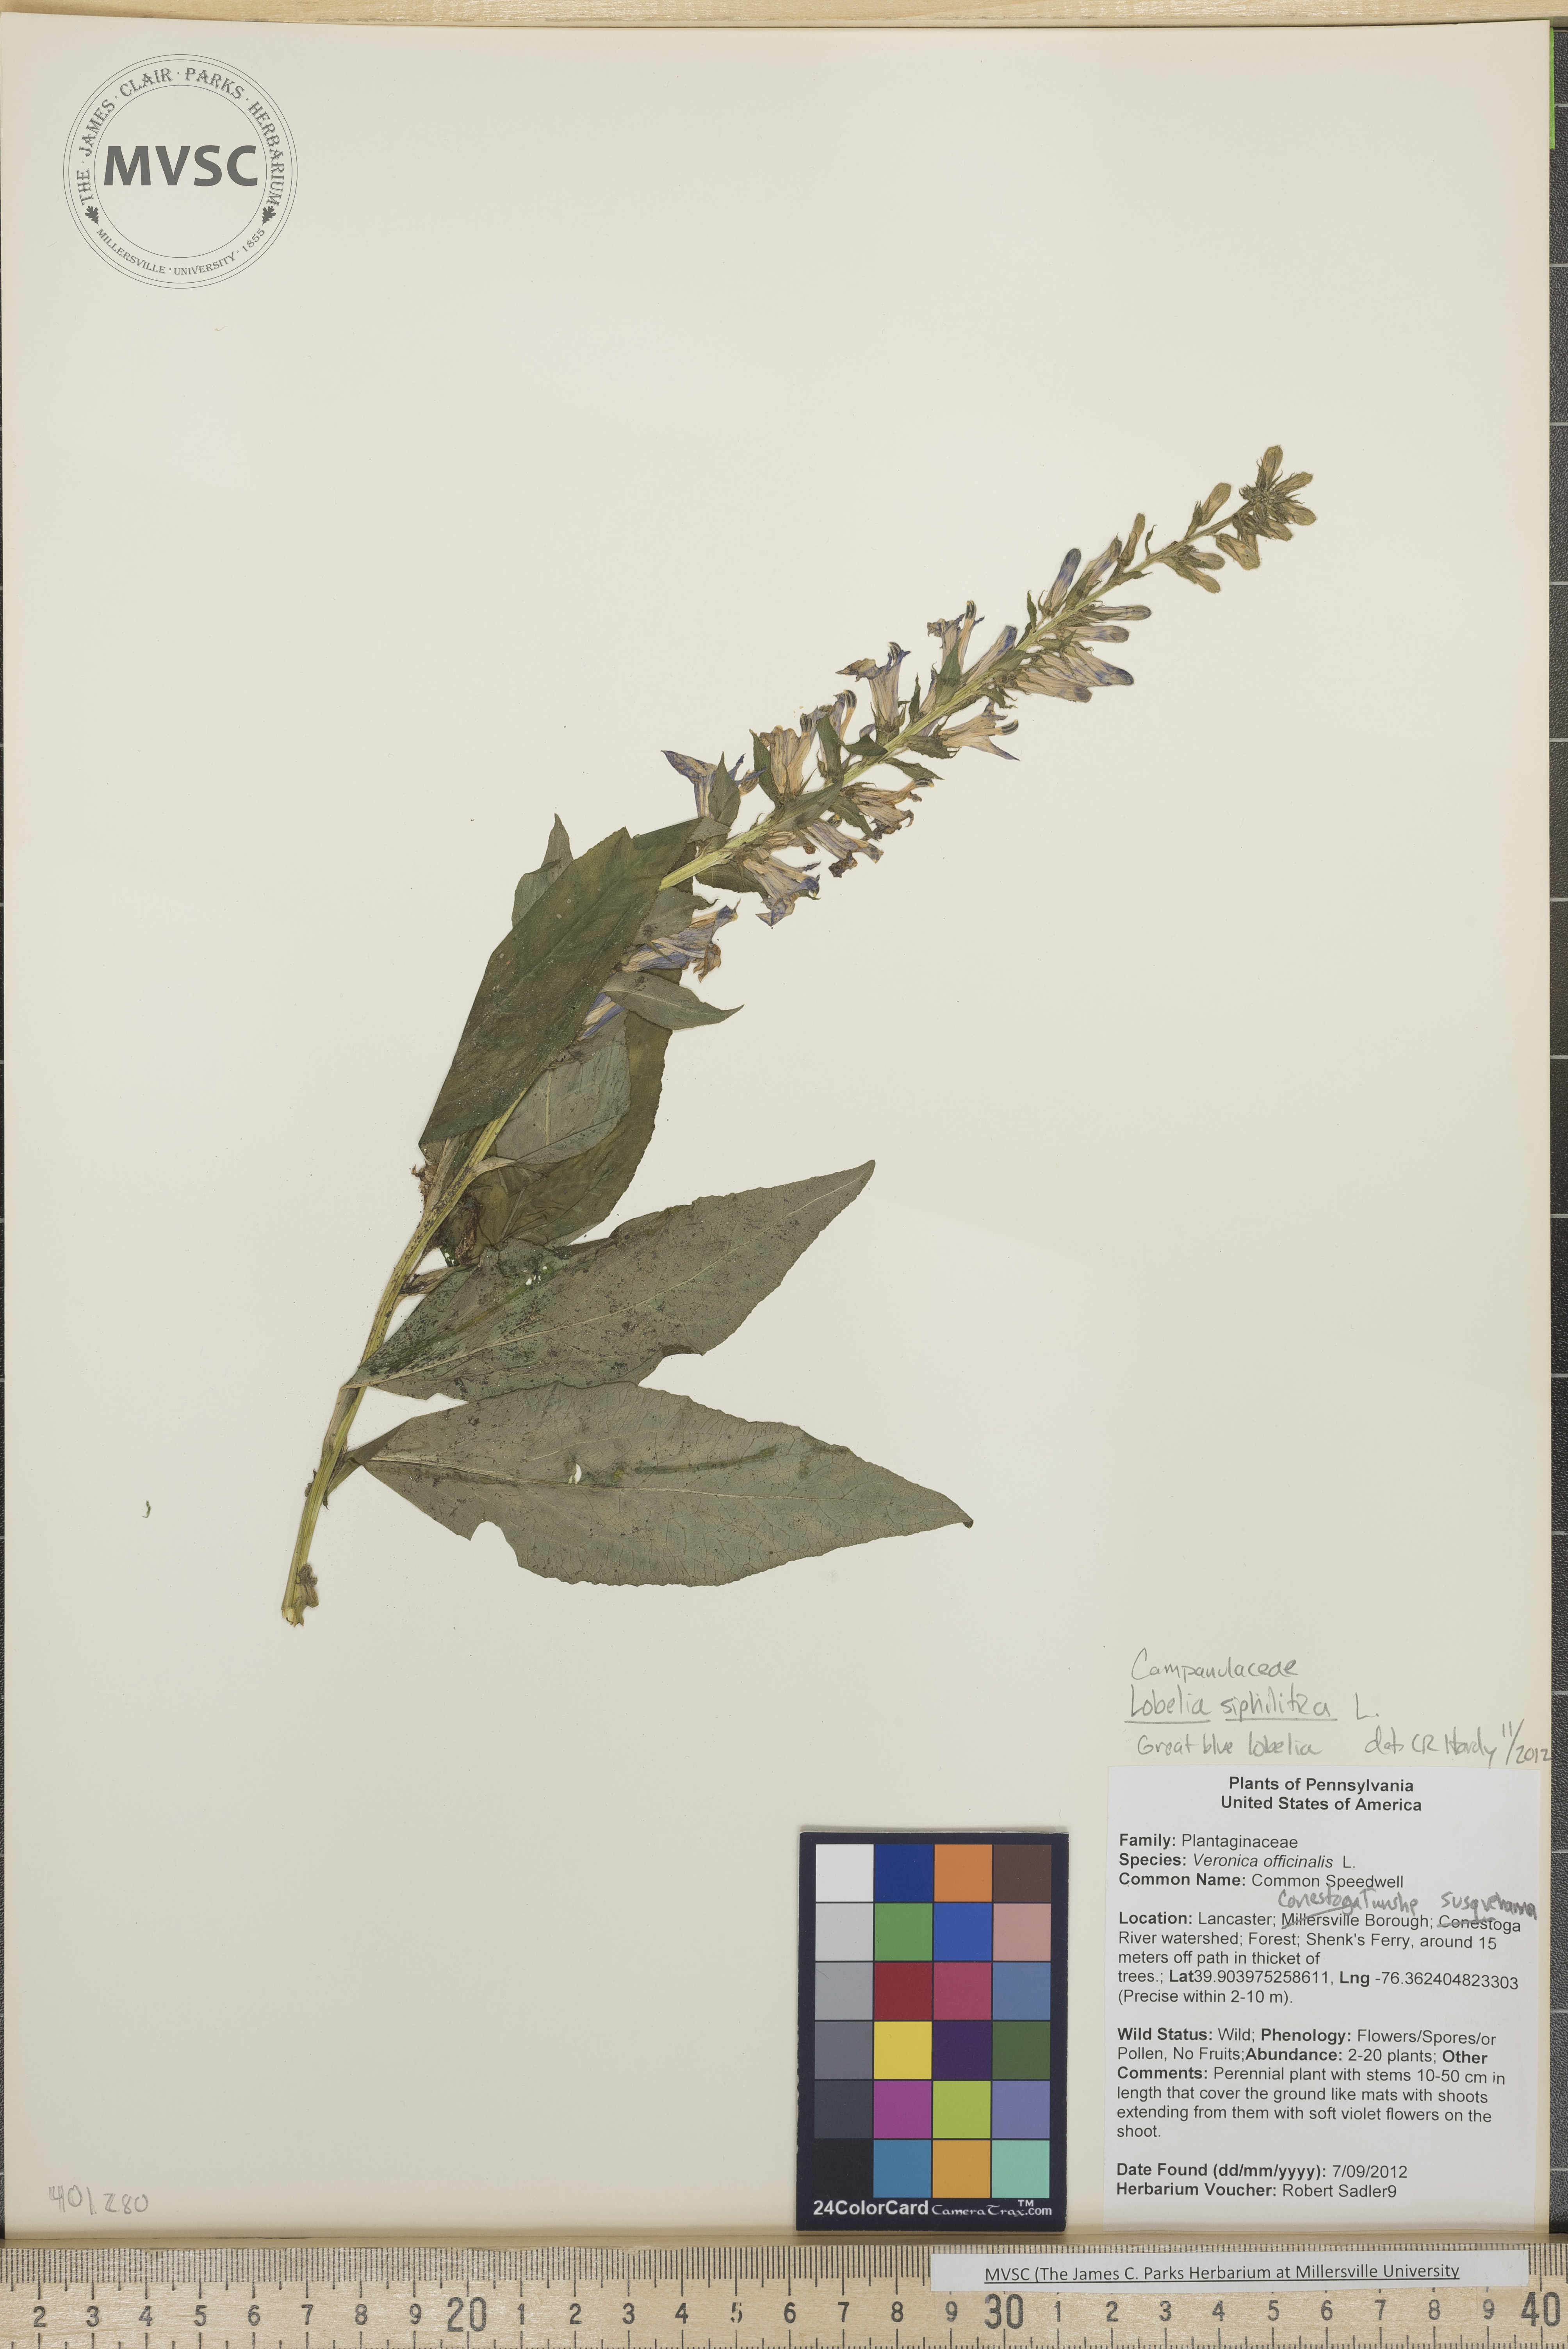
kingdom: Plantae
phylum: Tracheophyta
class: Magnoliopsida
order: Asterales
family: Campanulaceae
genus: Lobelia
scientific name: Lobelia siphilitica
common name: Great blue lobelia
